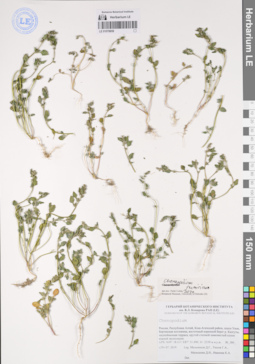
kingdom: Plantae
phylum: Tracheophyta
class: Magnoliopsida
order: Caryophyllales
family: Amaranthaceae
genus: Chenopodium
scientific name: Chenopodium pamiricum
